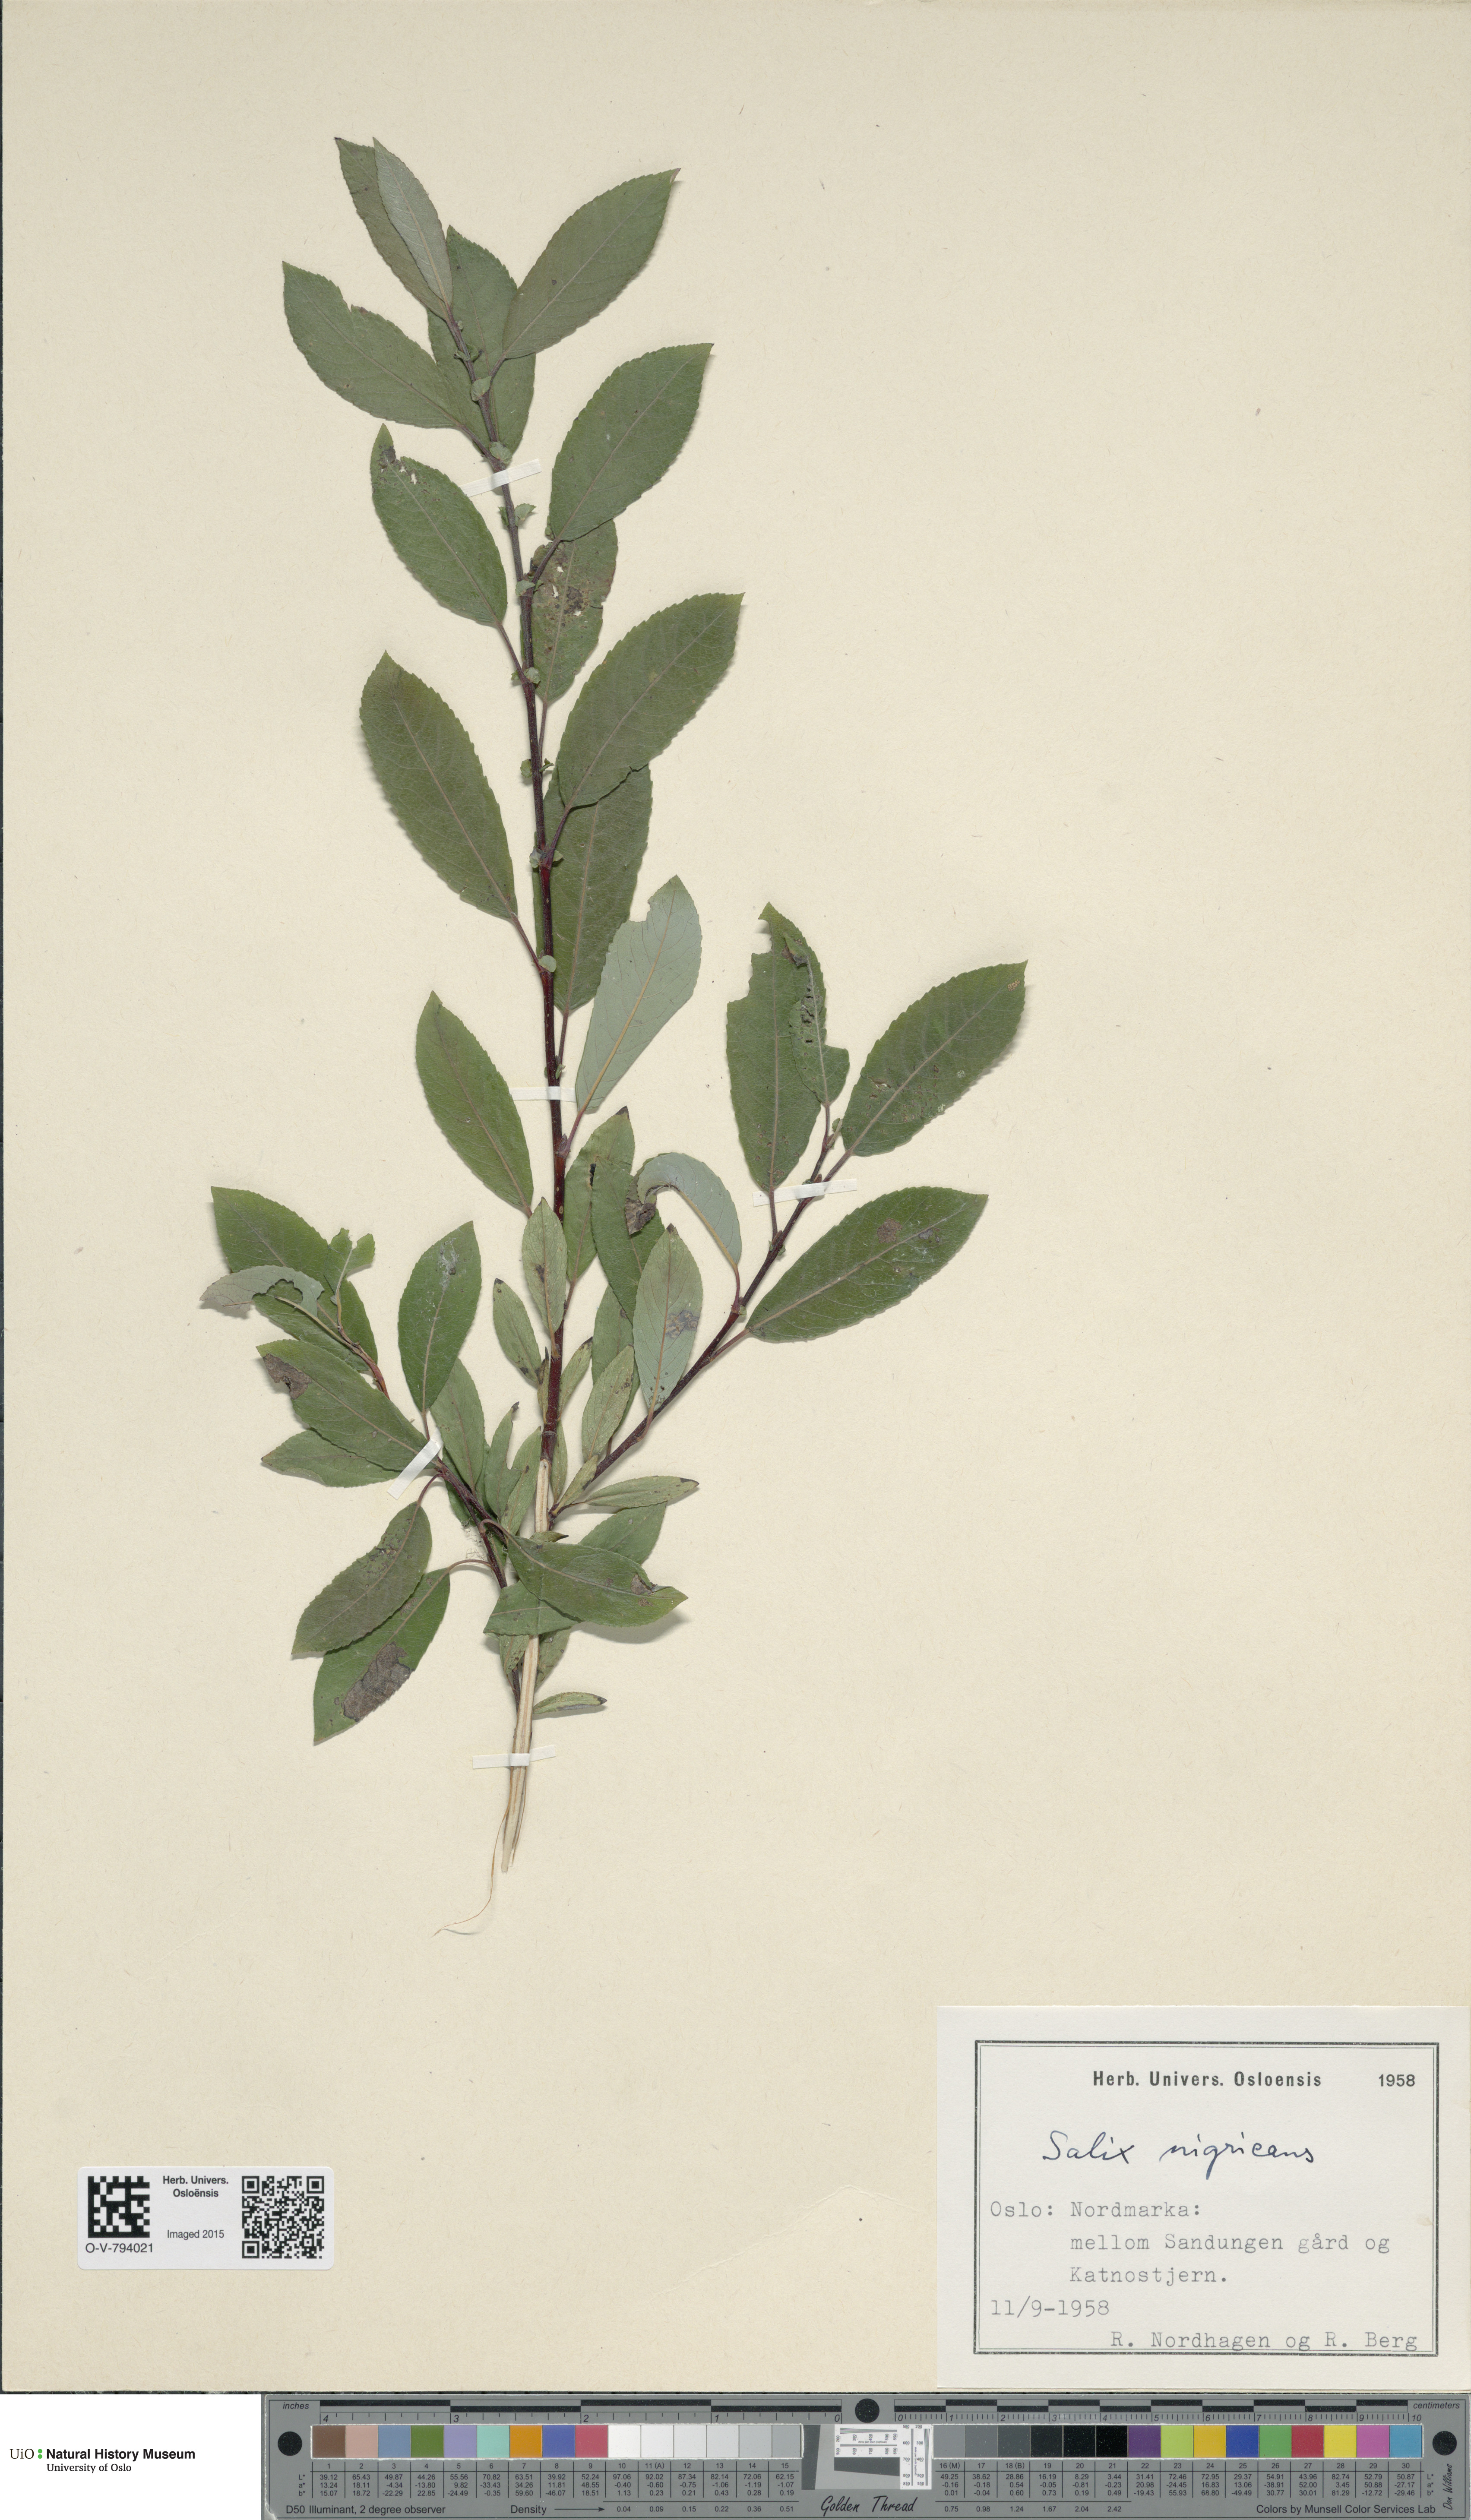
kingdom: Plantae
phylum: Tracheophyta
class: Magnoliopsida
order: Malpighiales
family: Salicaceae
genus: Salix
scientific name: Salix myrsinifolia
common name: Dark-leaved willow
